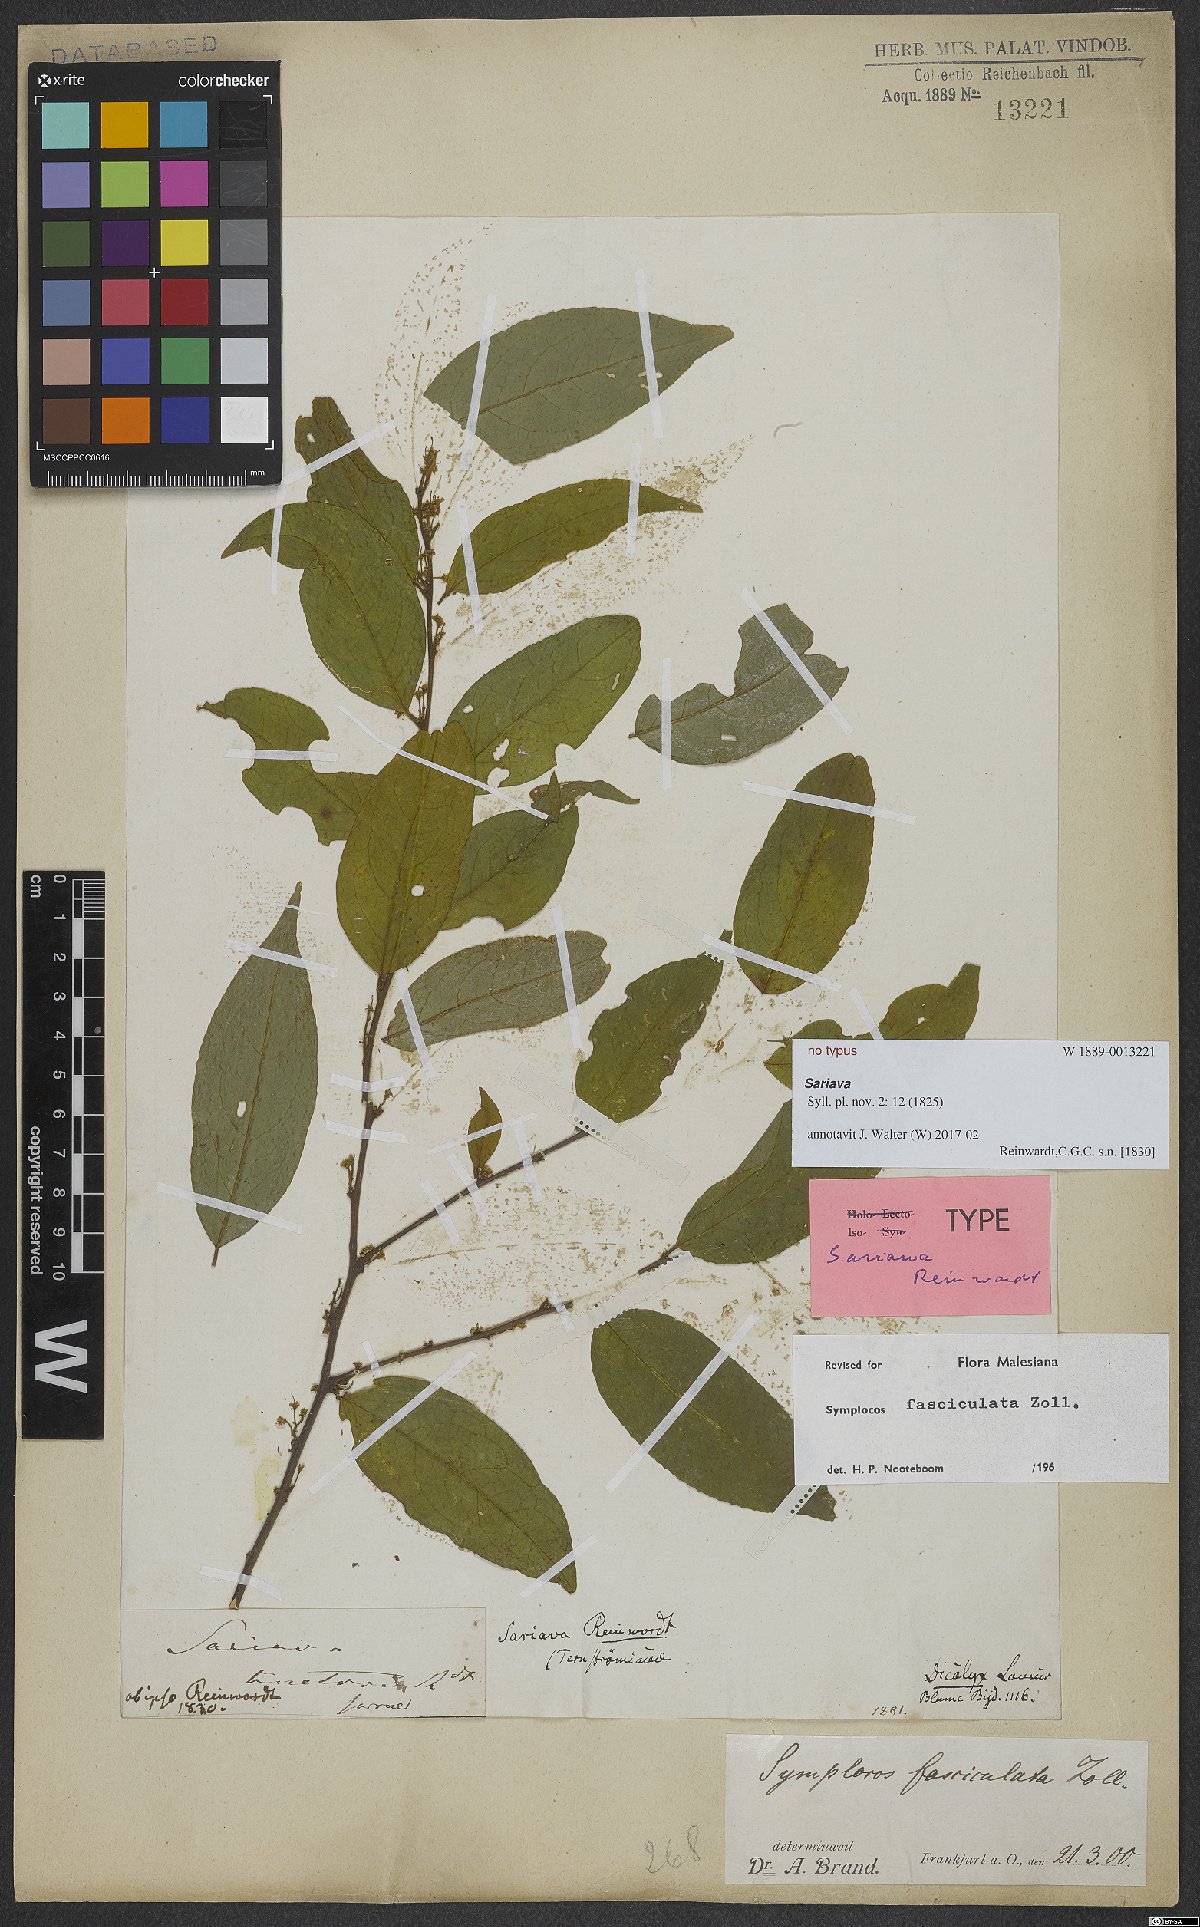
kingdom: Plantae
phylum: Tracheophyta
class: Magnoliopsida
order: Ericales
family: Symplocaceae
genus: Symplocos
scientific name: Symplocos fasciculata
